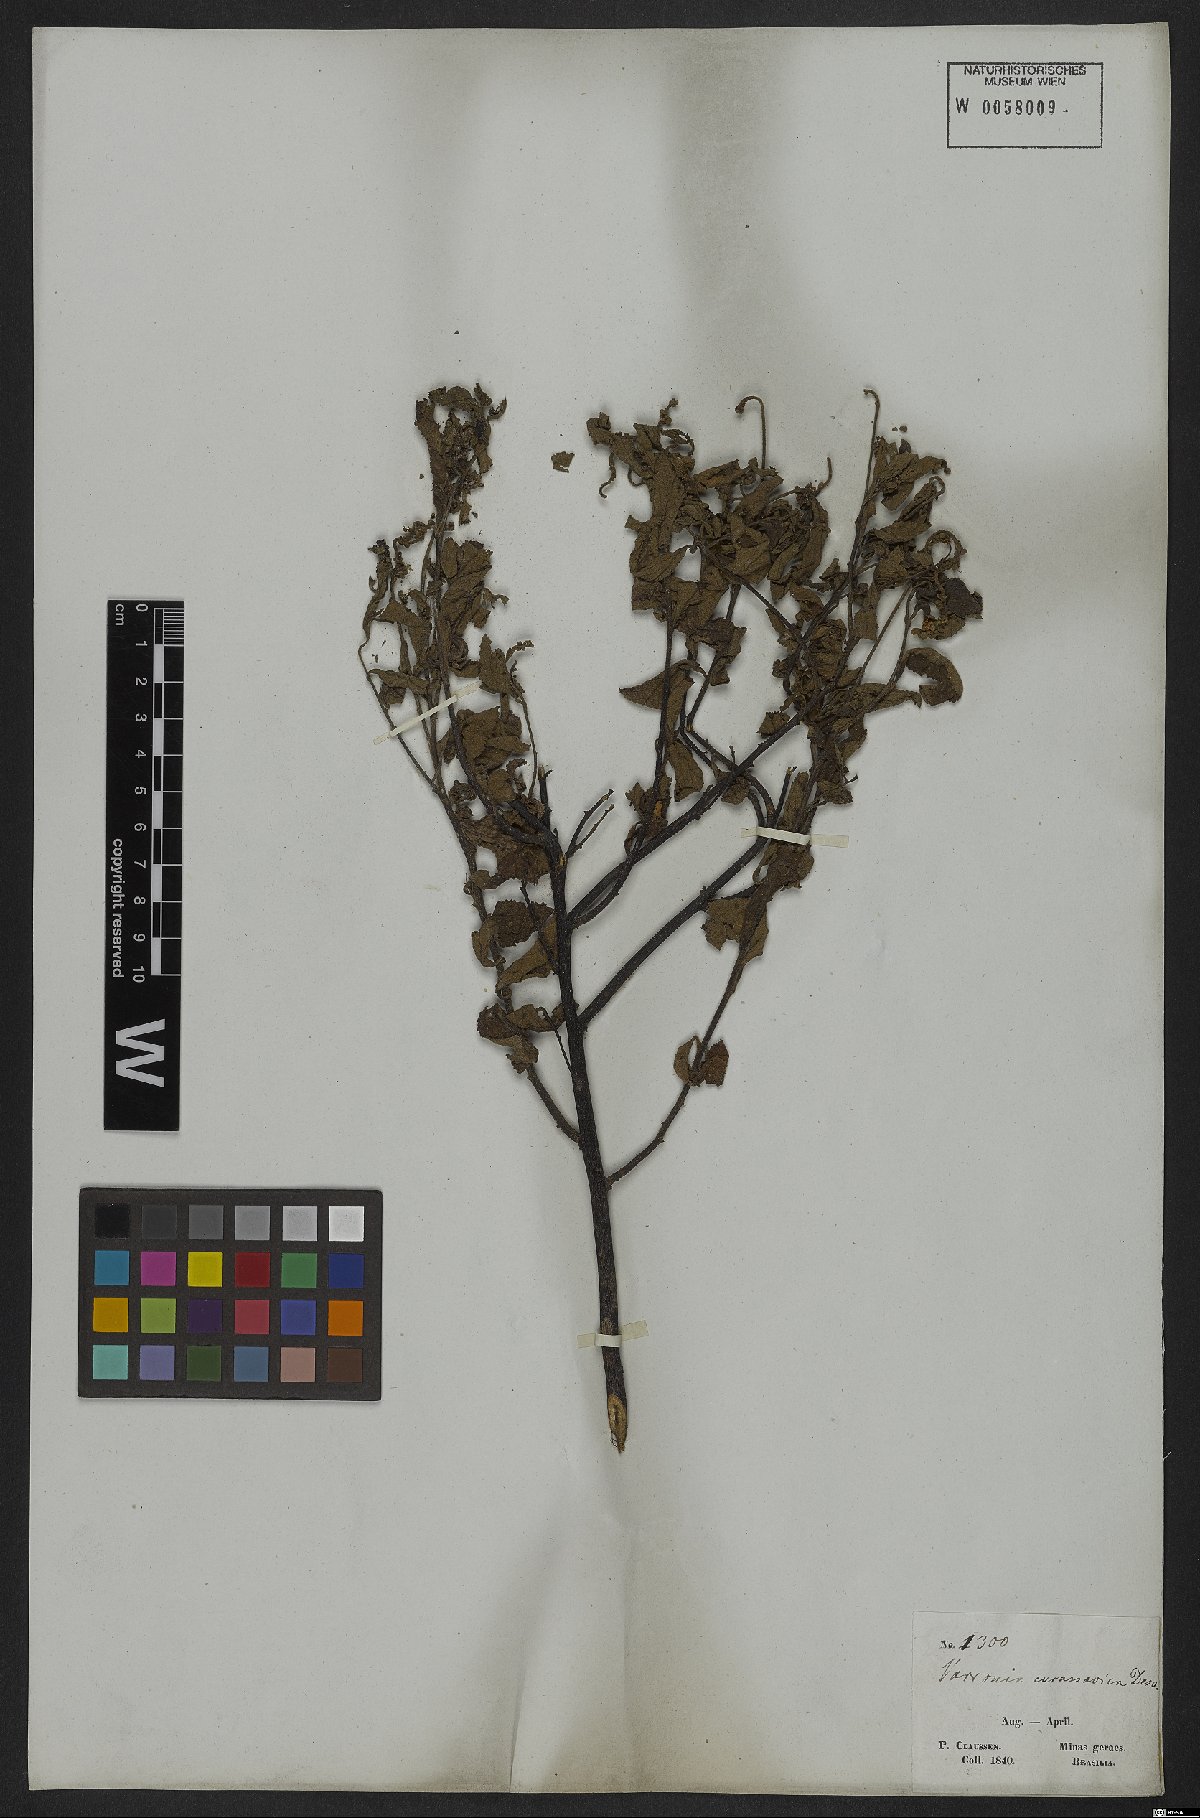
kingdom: Plantae
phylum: Tracheophyta
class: Magnoliopsida
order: Boraginales
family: Cordiaceae
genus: Varronia
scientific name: Varronia curassavica
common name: Black sage
